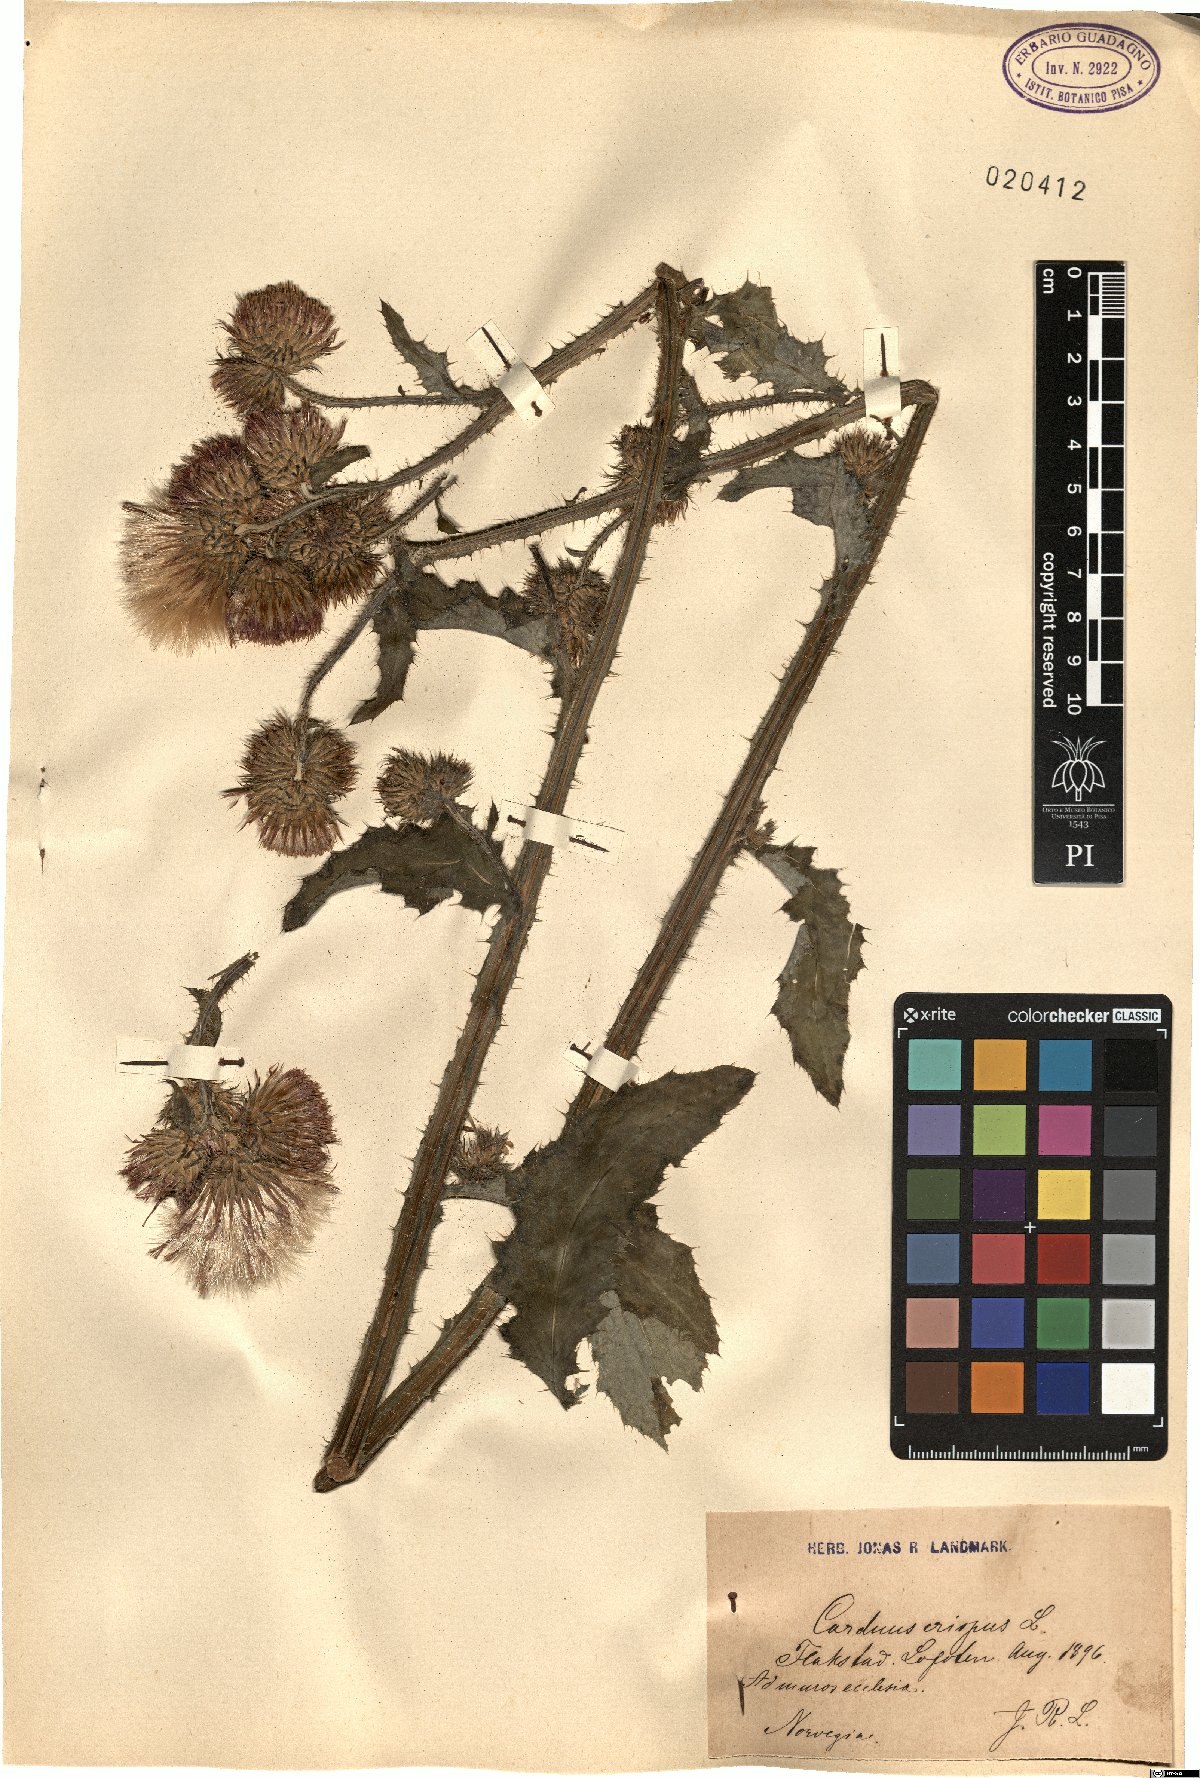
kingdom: Plantae
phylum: Tracheophyta
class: Magnoliopsida
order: Asterales
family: Asteraceae
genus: Carduus
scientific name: Carduus crispus
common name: Welted thistle
